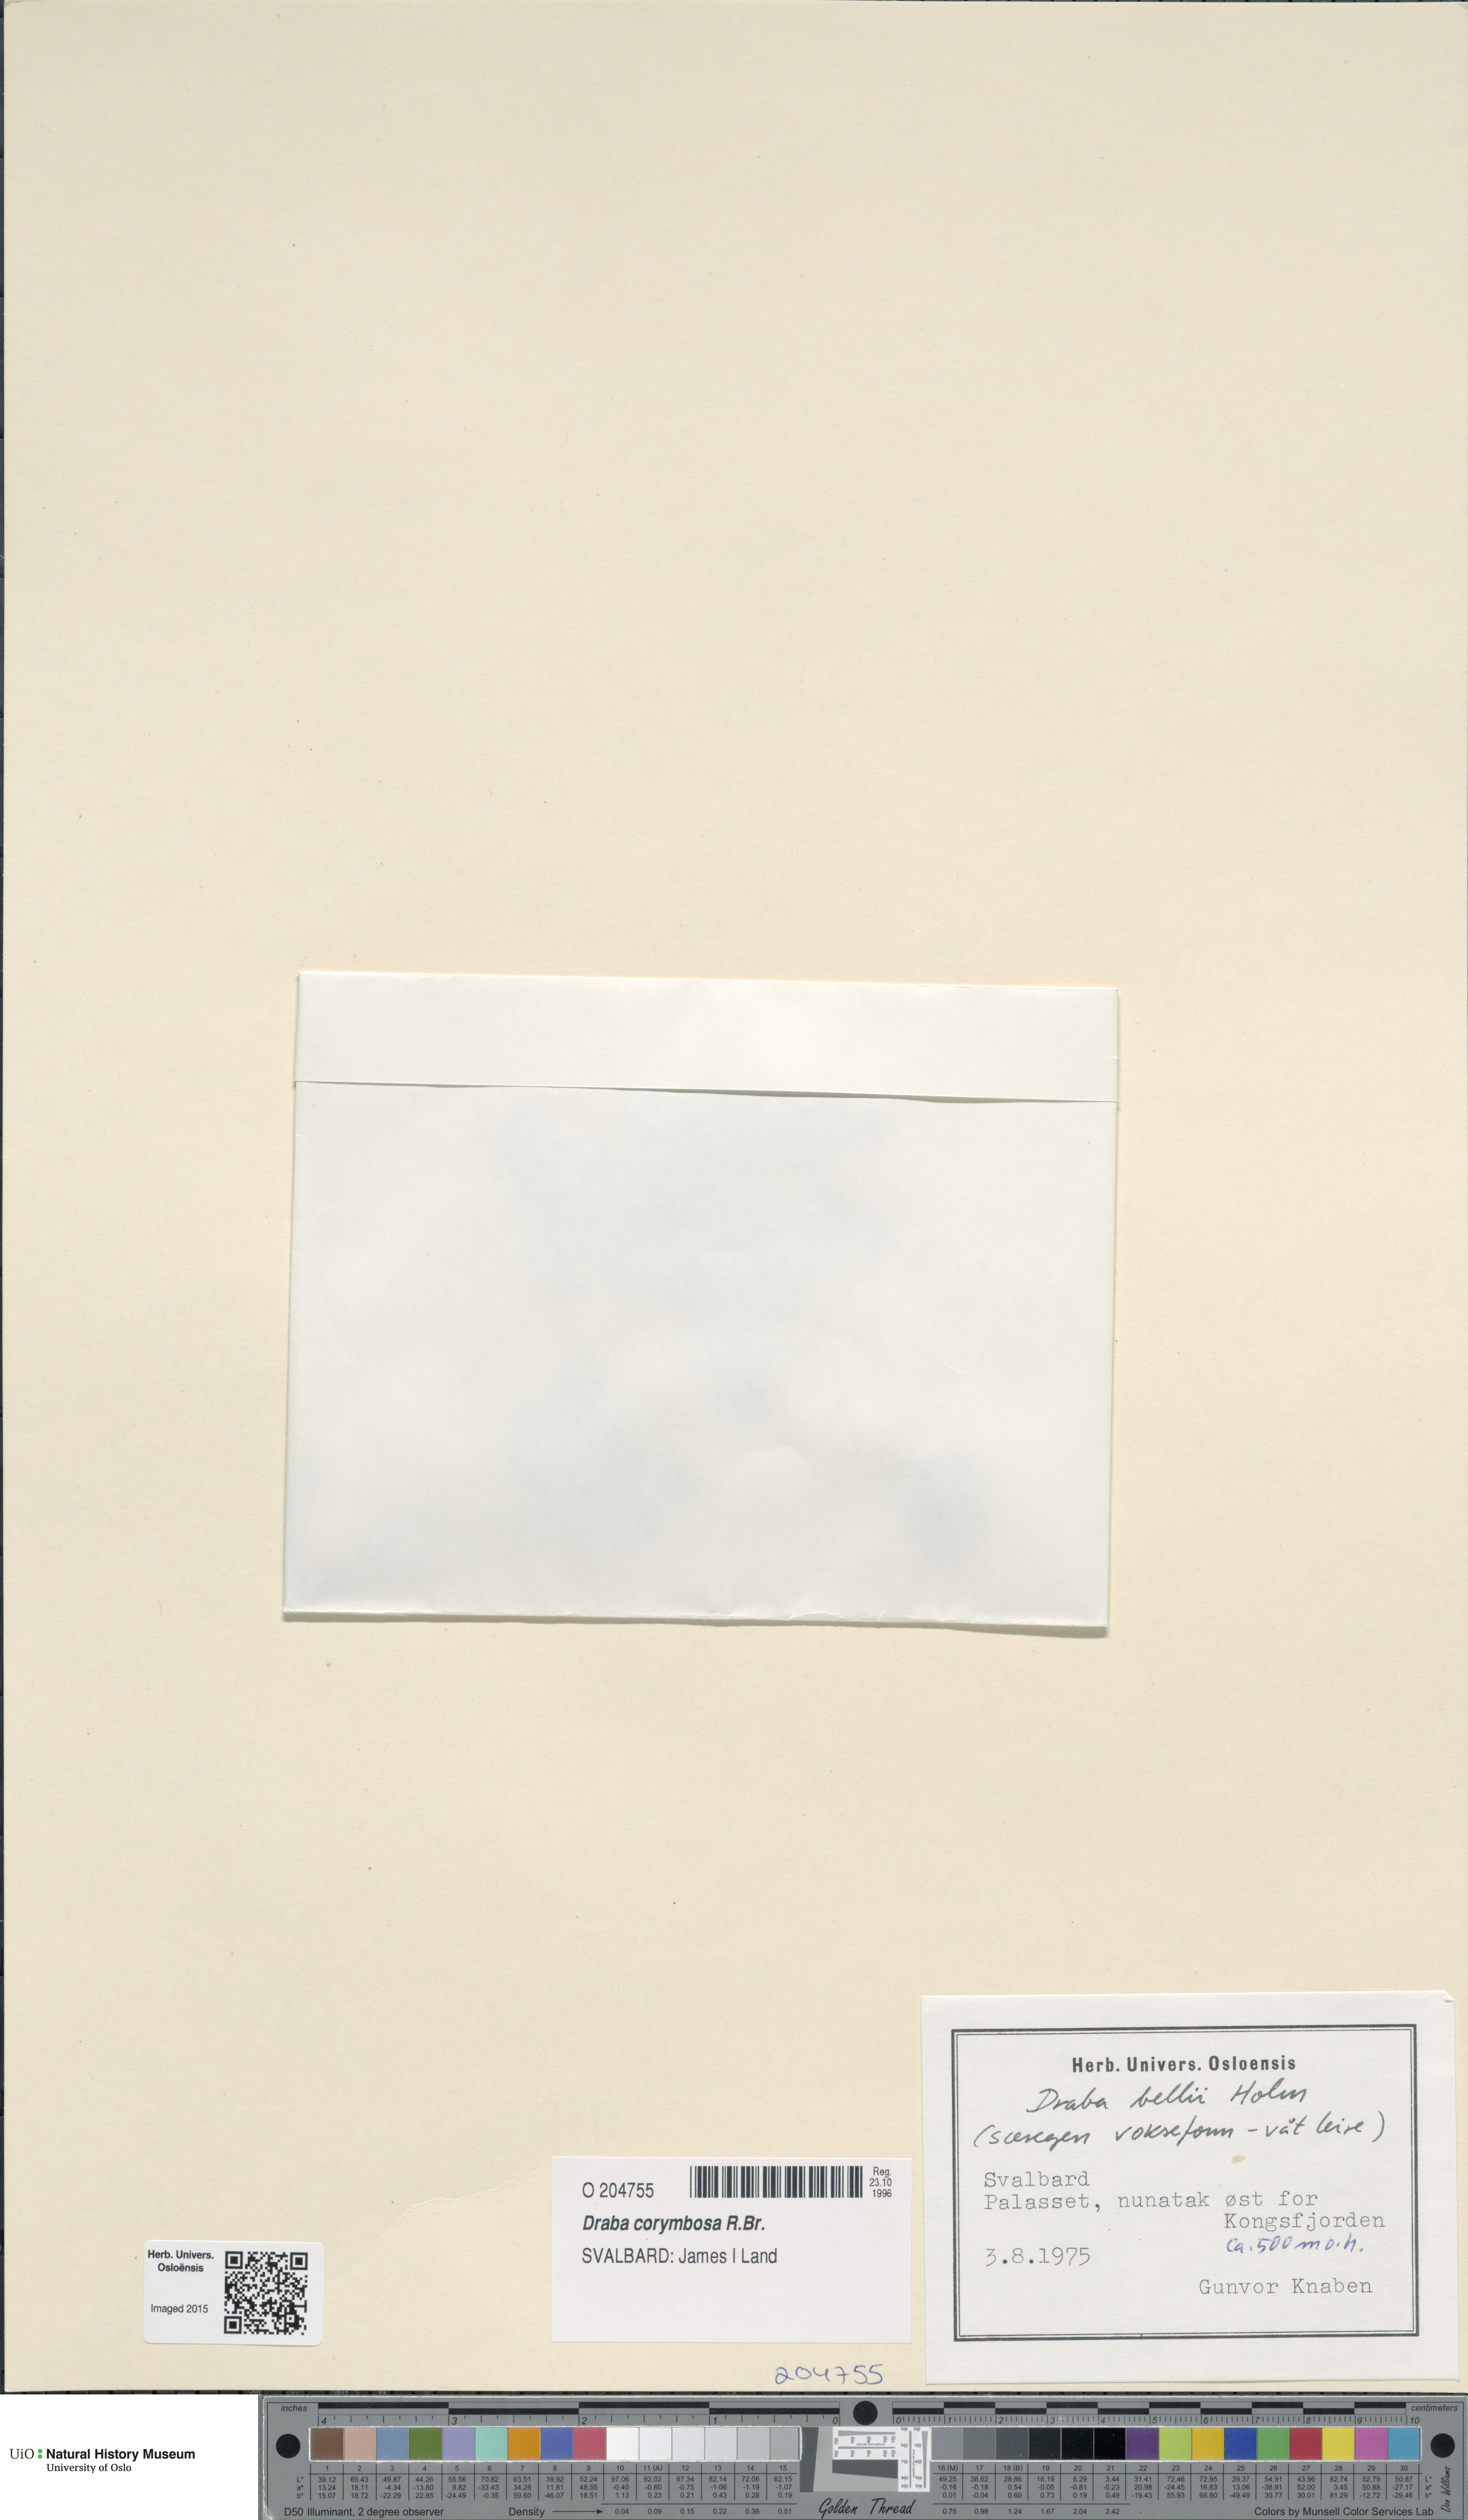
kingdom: Plantae
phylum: Tracheophyta
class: Magnoliopsida
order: Brassicales
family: Brassicaceae
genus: Draba
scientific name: Draba corymbosa
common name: Cushion whitlow-grass
